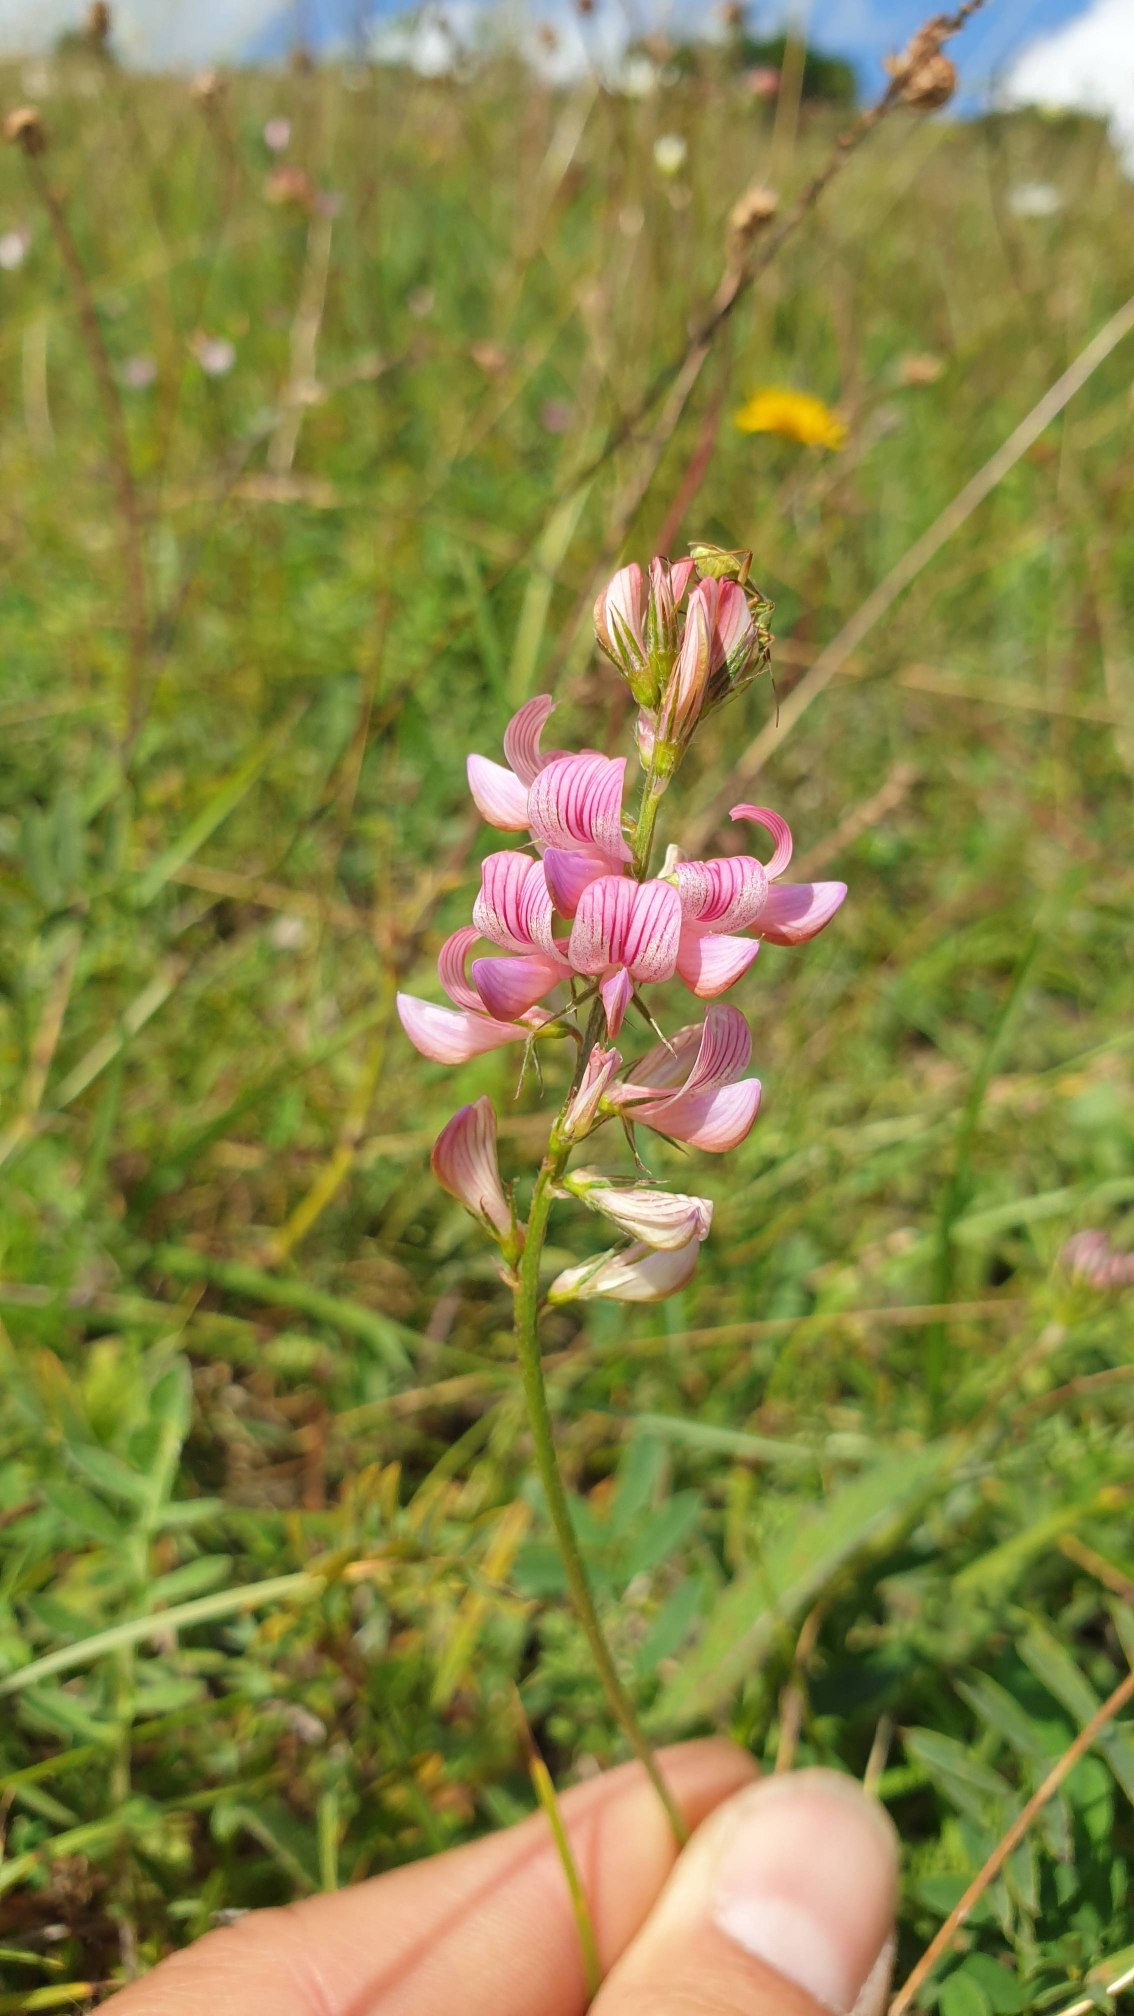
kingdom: Plantae
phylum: Tracheophyta
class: Magnoliopsida
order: Fabales
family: Fabaceae
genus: Onobrychis
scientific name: Onobrychis viciifolia
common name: Esparsette
